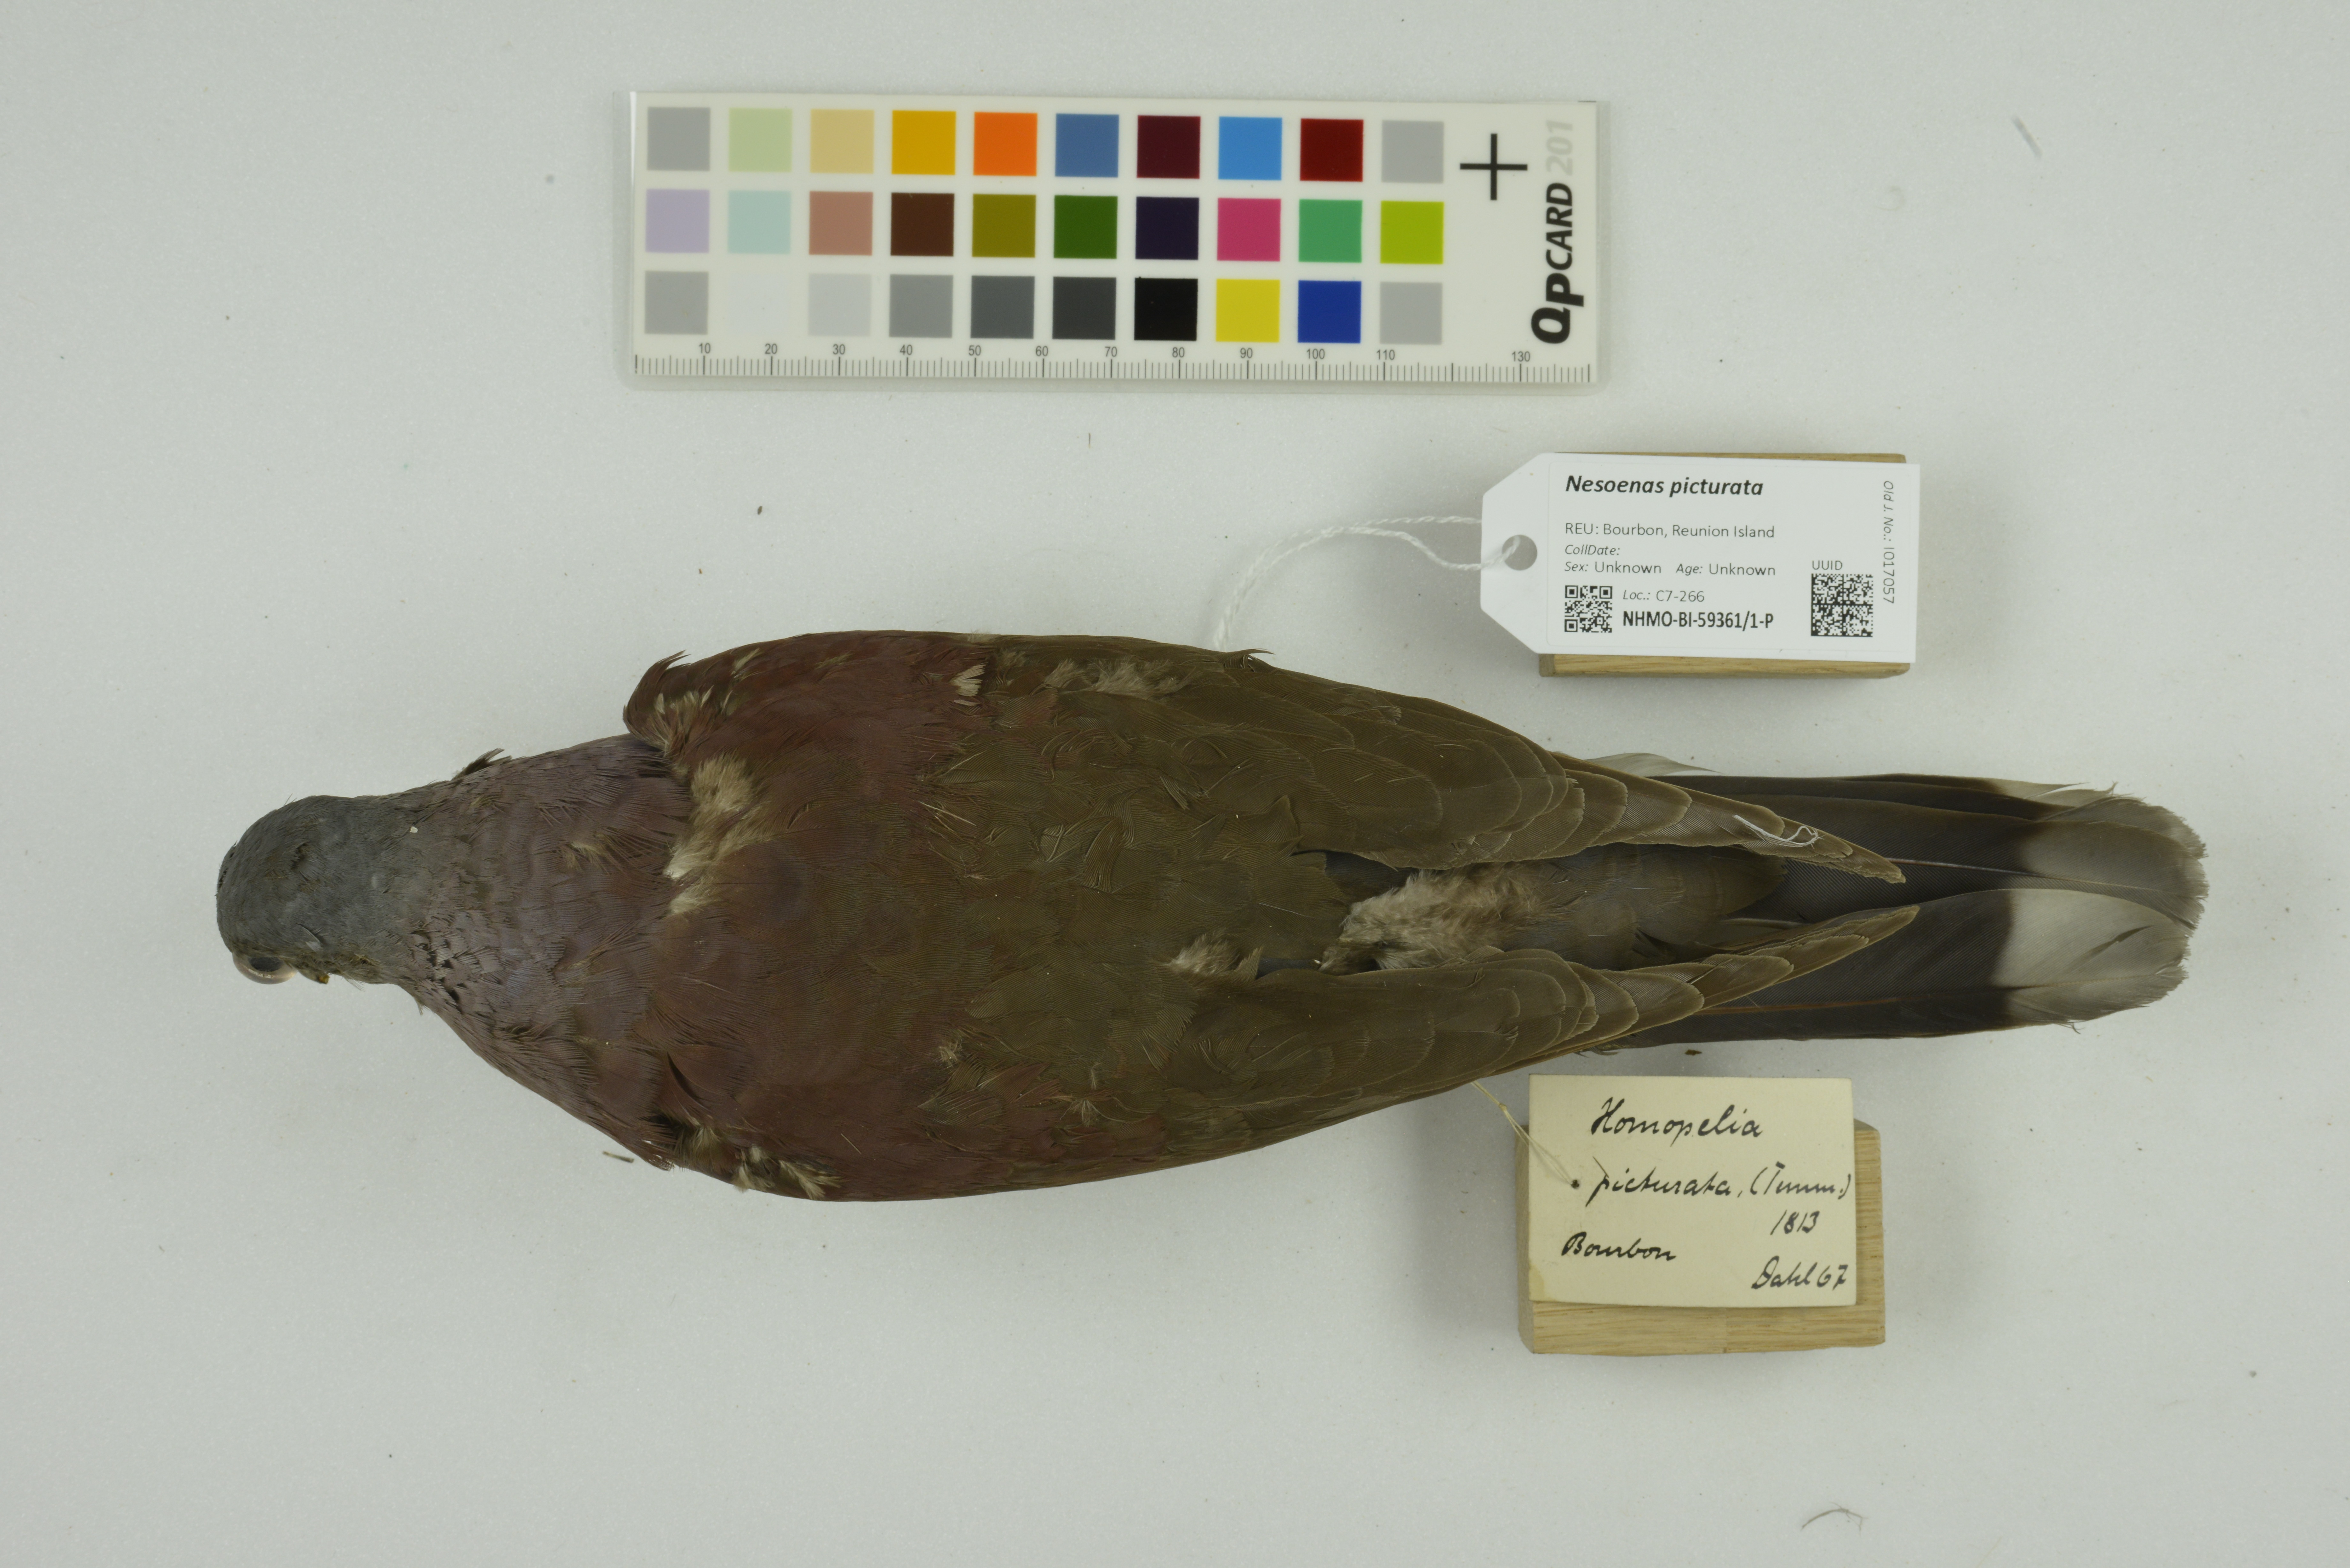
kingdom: Animalia
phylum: Chordata
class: Aves
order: Columbiformes
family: Columbidae
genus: Nesoenas
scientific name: Nesoenas picturatus
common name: Malagasy turtle dove
